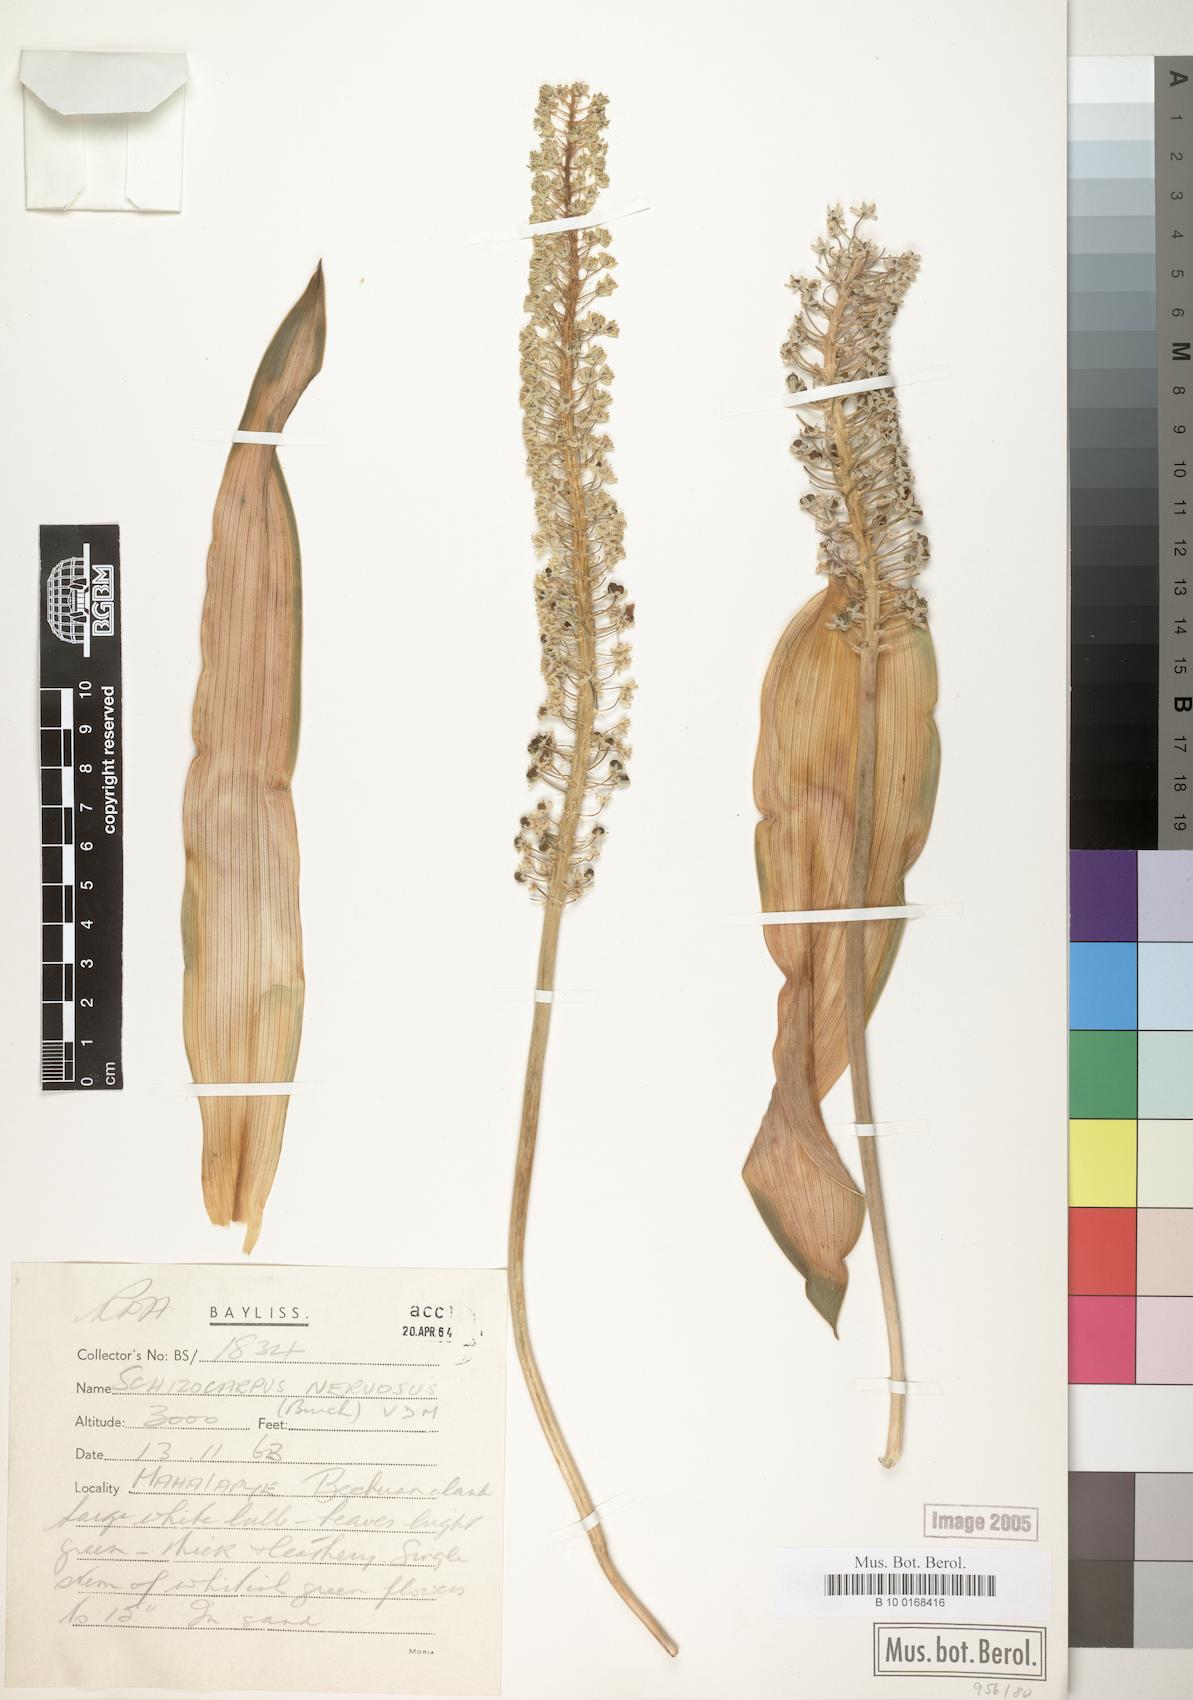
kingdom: Plantae
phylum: Tracheophyta
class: Liliopsida
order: Asparagales
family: Asparagaceae
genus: Schizocarphus
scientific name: Schizocarphus nervosus
